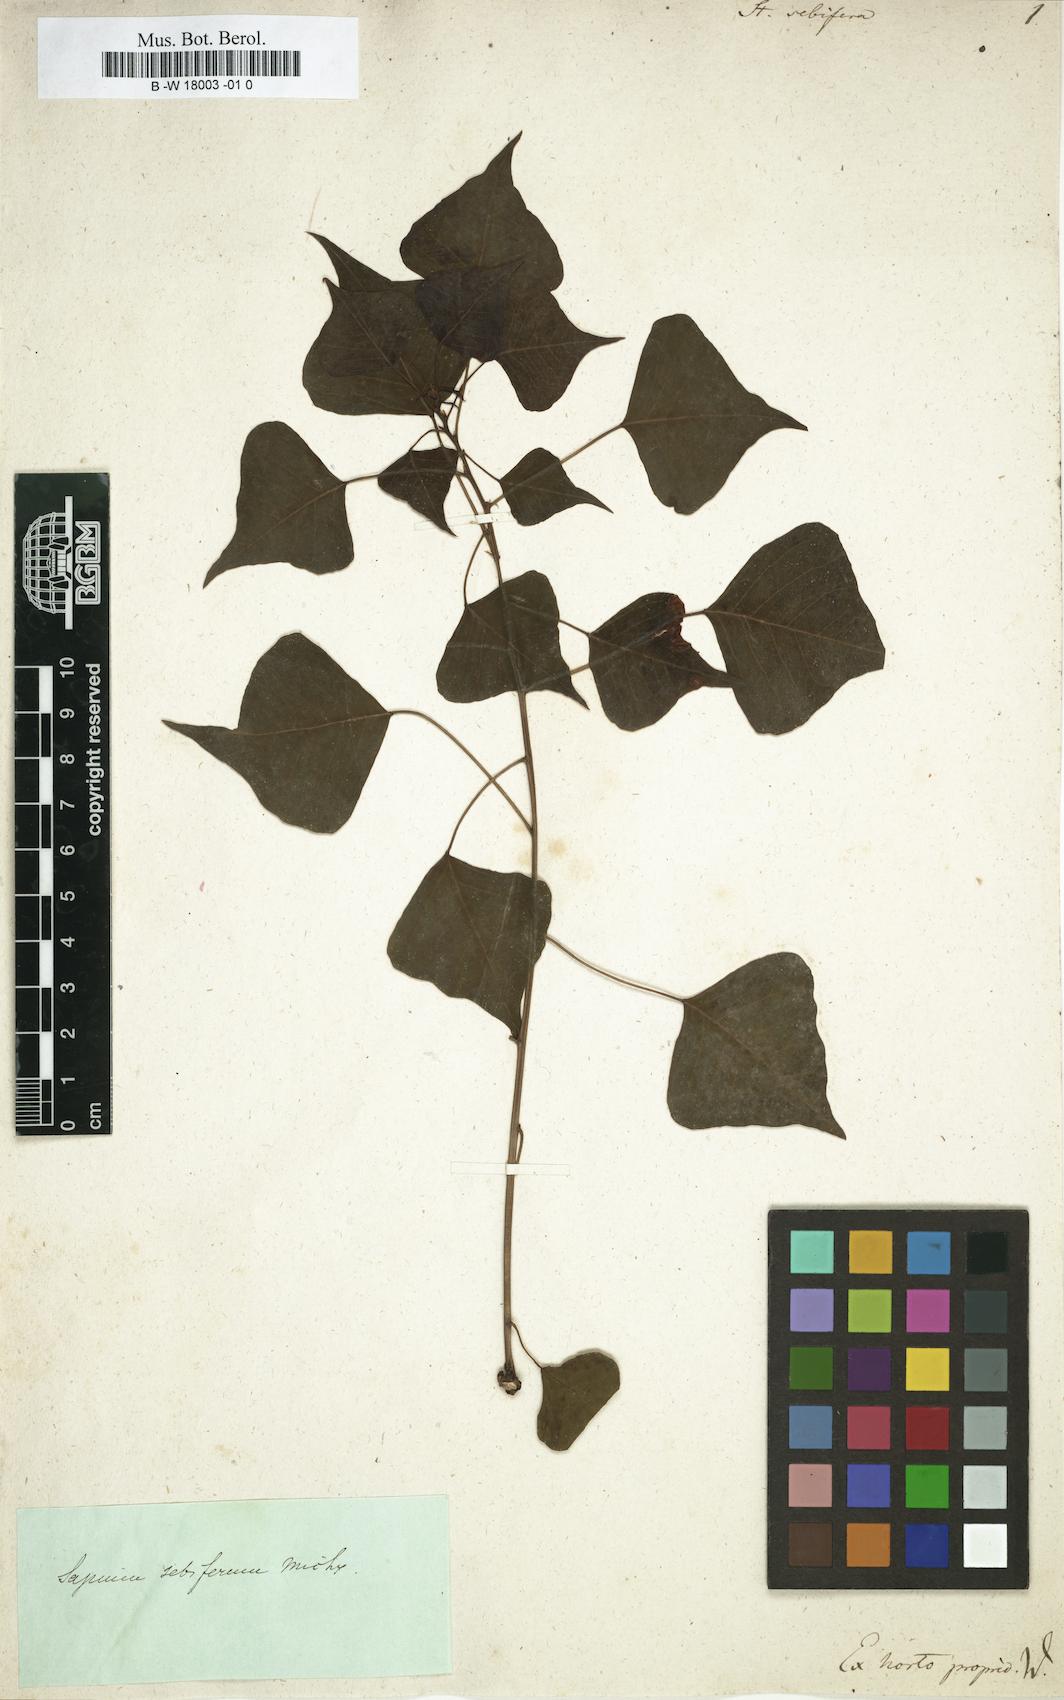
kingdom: Plantae
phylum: Tracheophyta
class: Magnoliopsida
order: Malpighiales
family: Euphorbiaceae
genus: Triadica
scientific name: Triadica sebifera
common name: Chinese tallow
